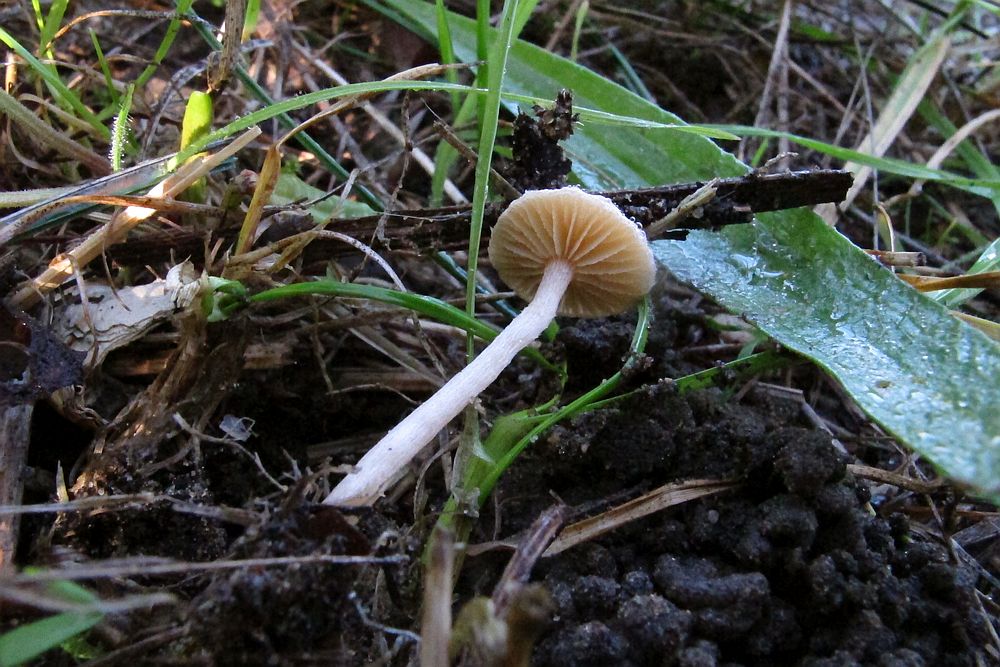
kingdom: Fungi
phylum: Basidiomycota
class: Agaricomycetes
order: Agaricales
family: Tubariaceae
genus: Tubaria
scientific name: Tubaria furfuracea
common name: kliddet fnughat
